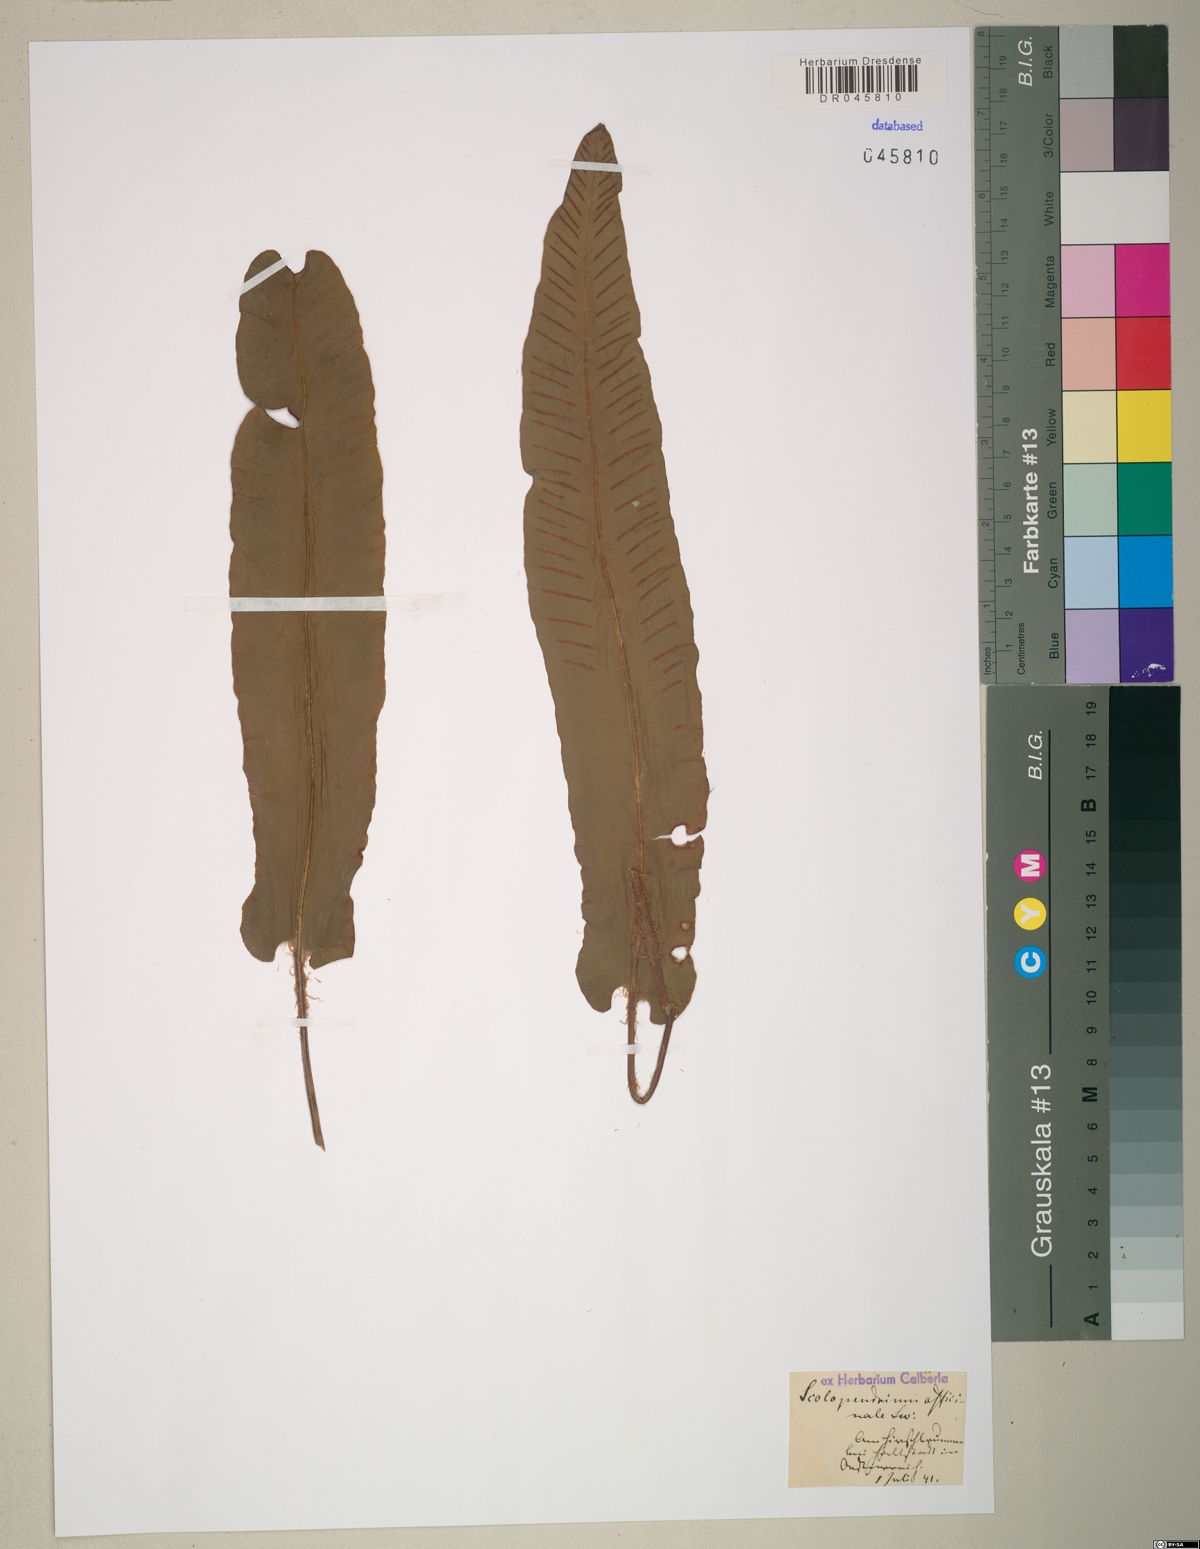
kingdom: Plantae
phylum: Tracheophyta
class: Polypodiopsida
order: Polypodiales
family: Aspleniaceae
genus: Asplenium
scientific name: Asplenium scolopendrium
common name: Hart's-tongue fern
